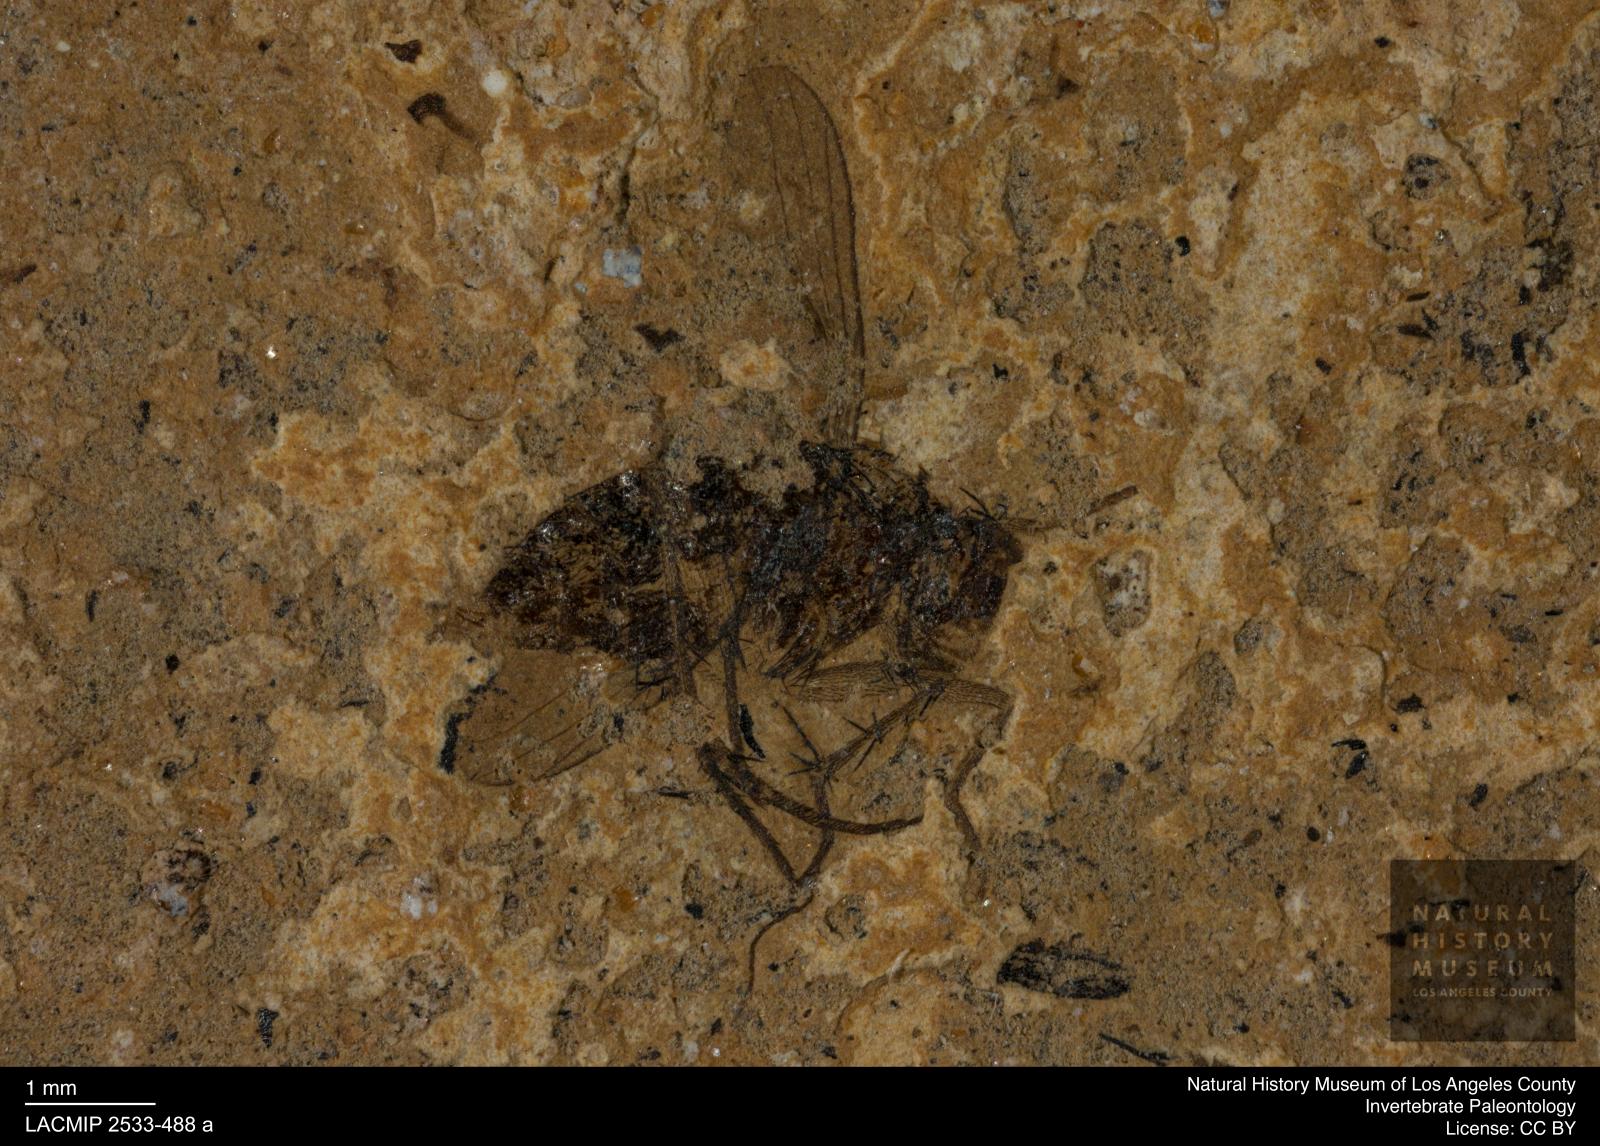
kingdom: Animalia
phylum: Arthropoda
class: Insecta
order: Diptera
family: Dolichopodidae
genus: Dolichopus
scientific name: Dolichopus spinosus
